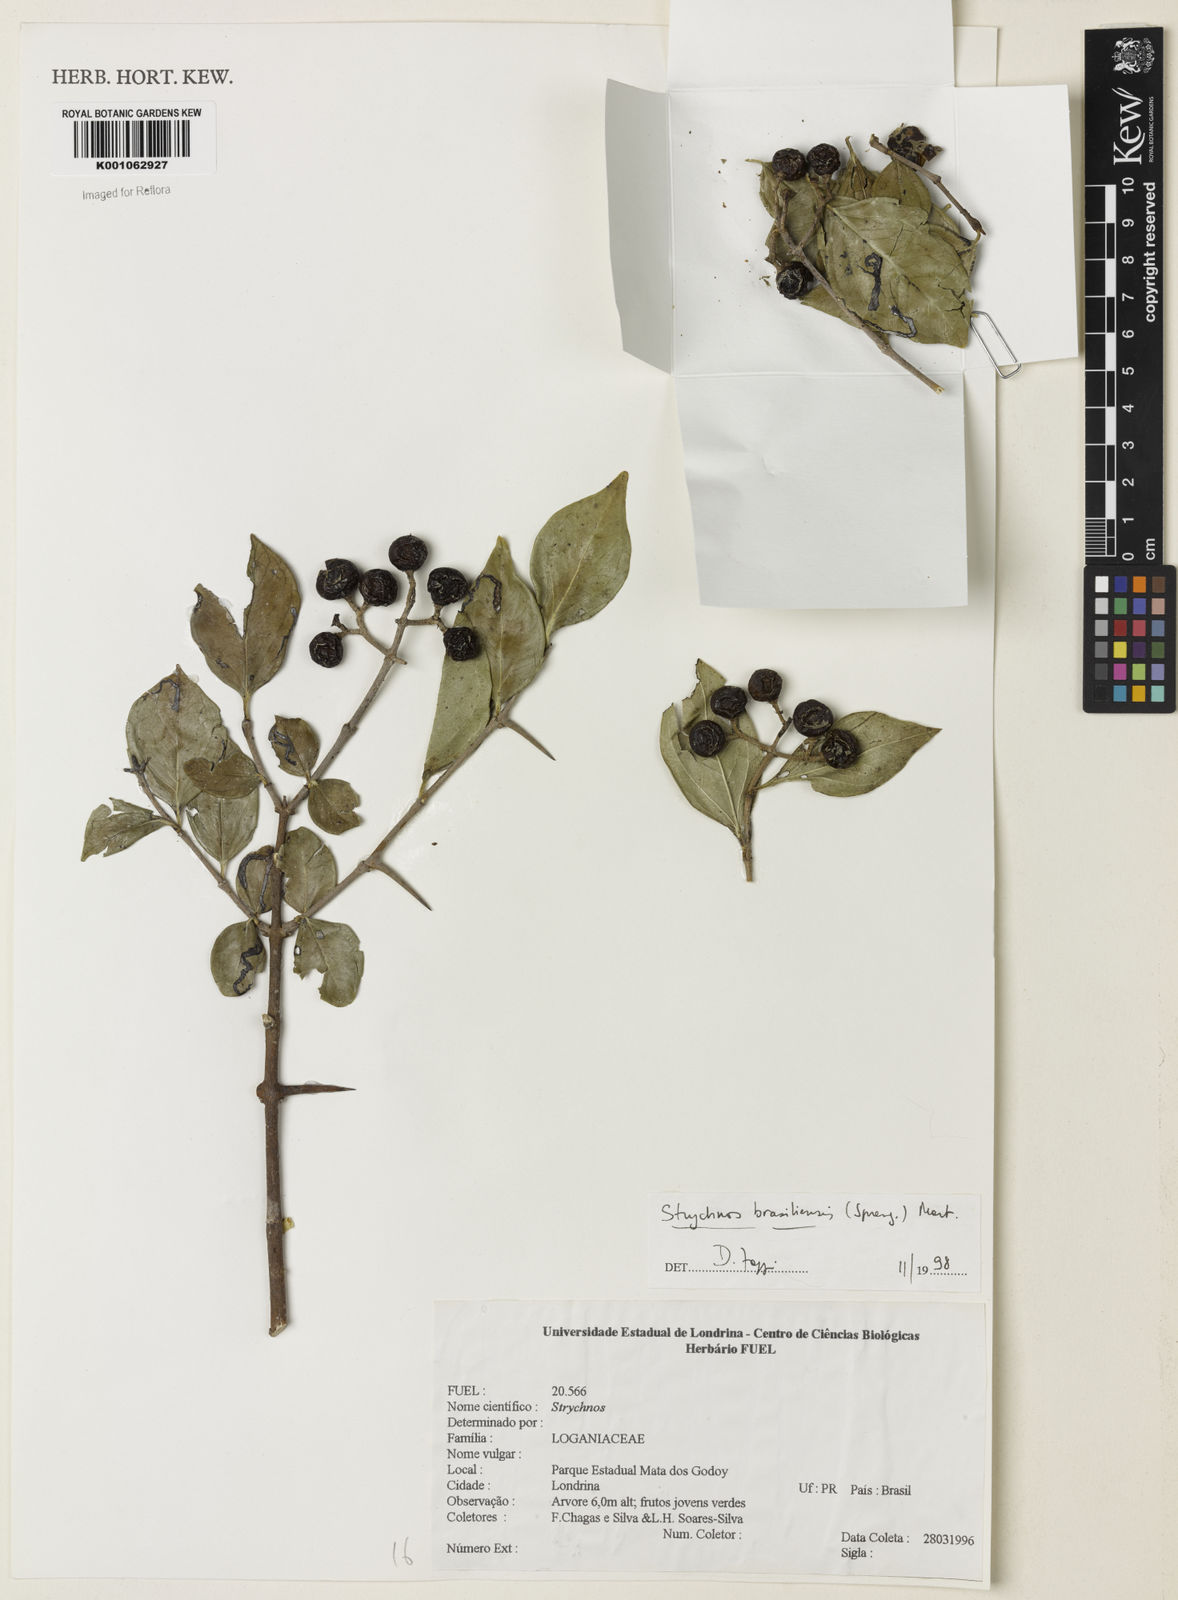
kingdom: Plantae
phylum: Tracheophyta
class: Magnoliopsida
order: Gentianales
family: Loganiaceae
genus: Strychnos
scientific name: Strychnos brasiliensis
